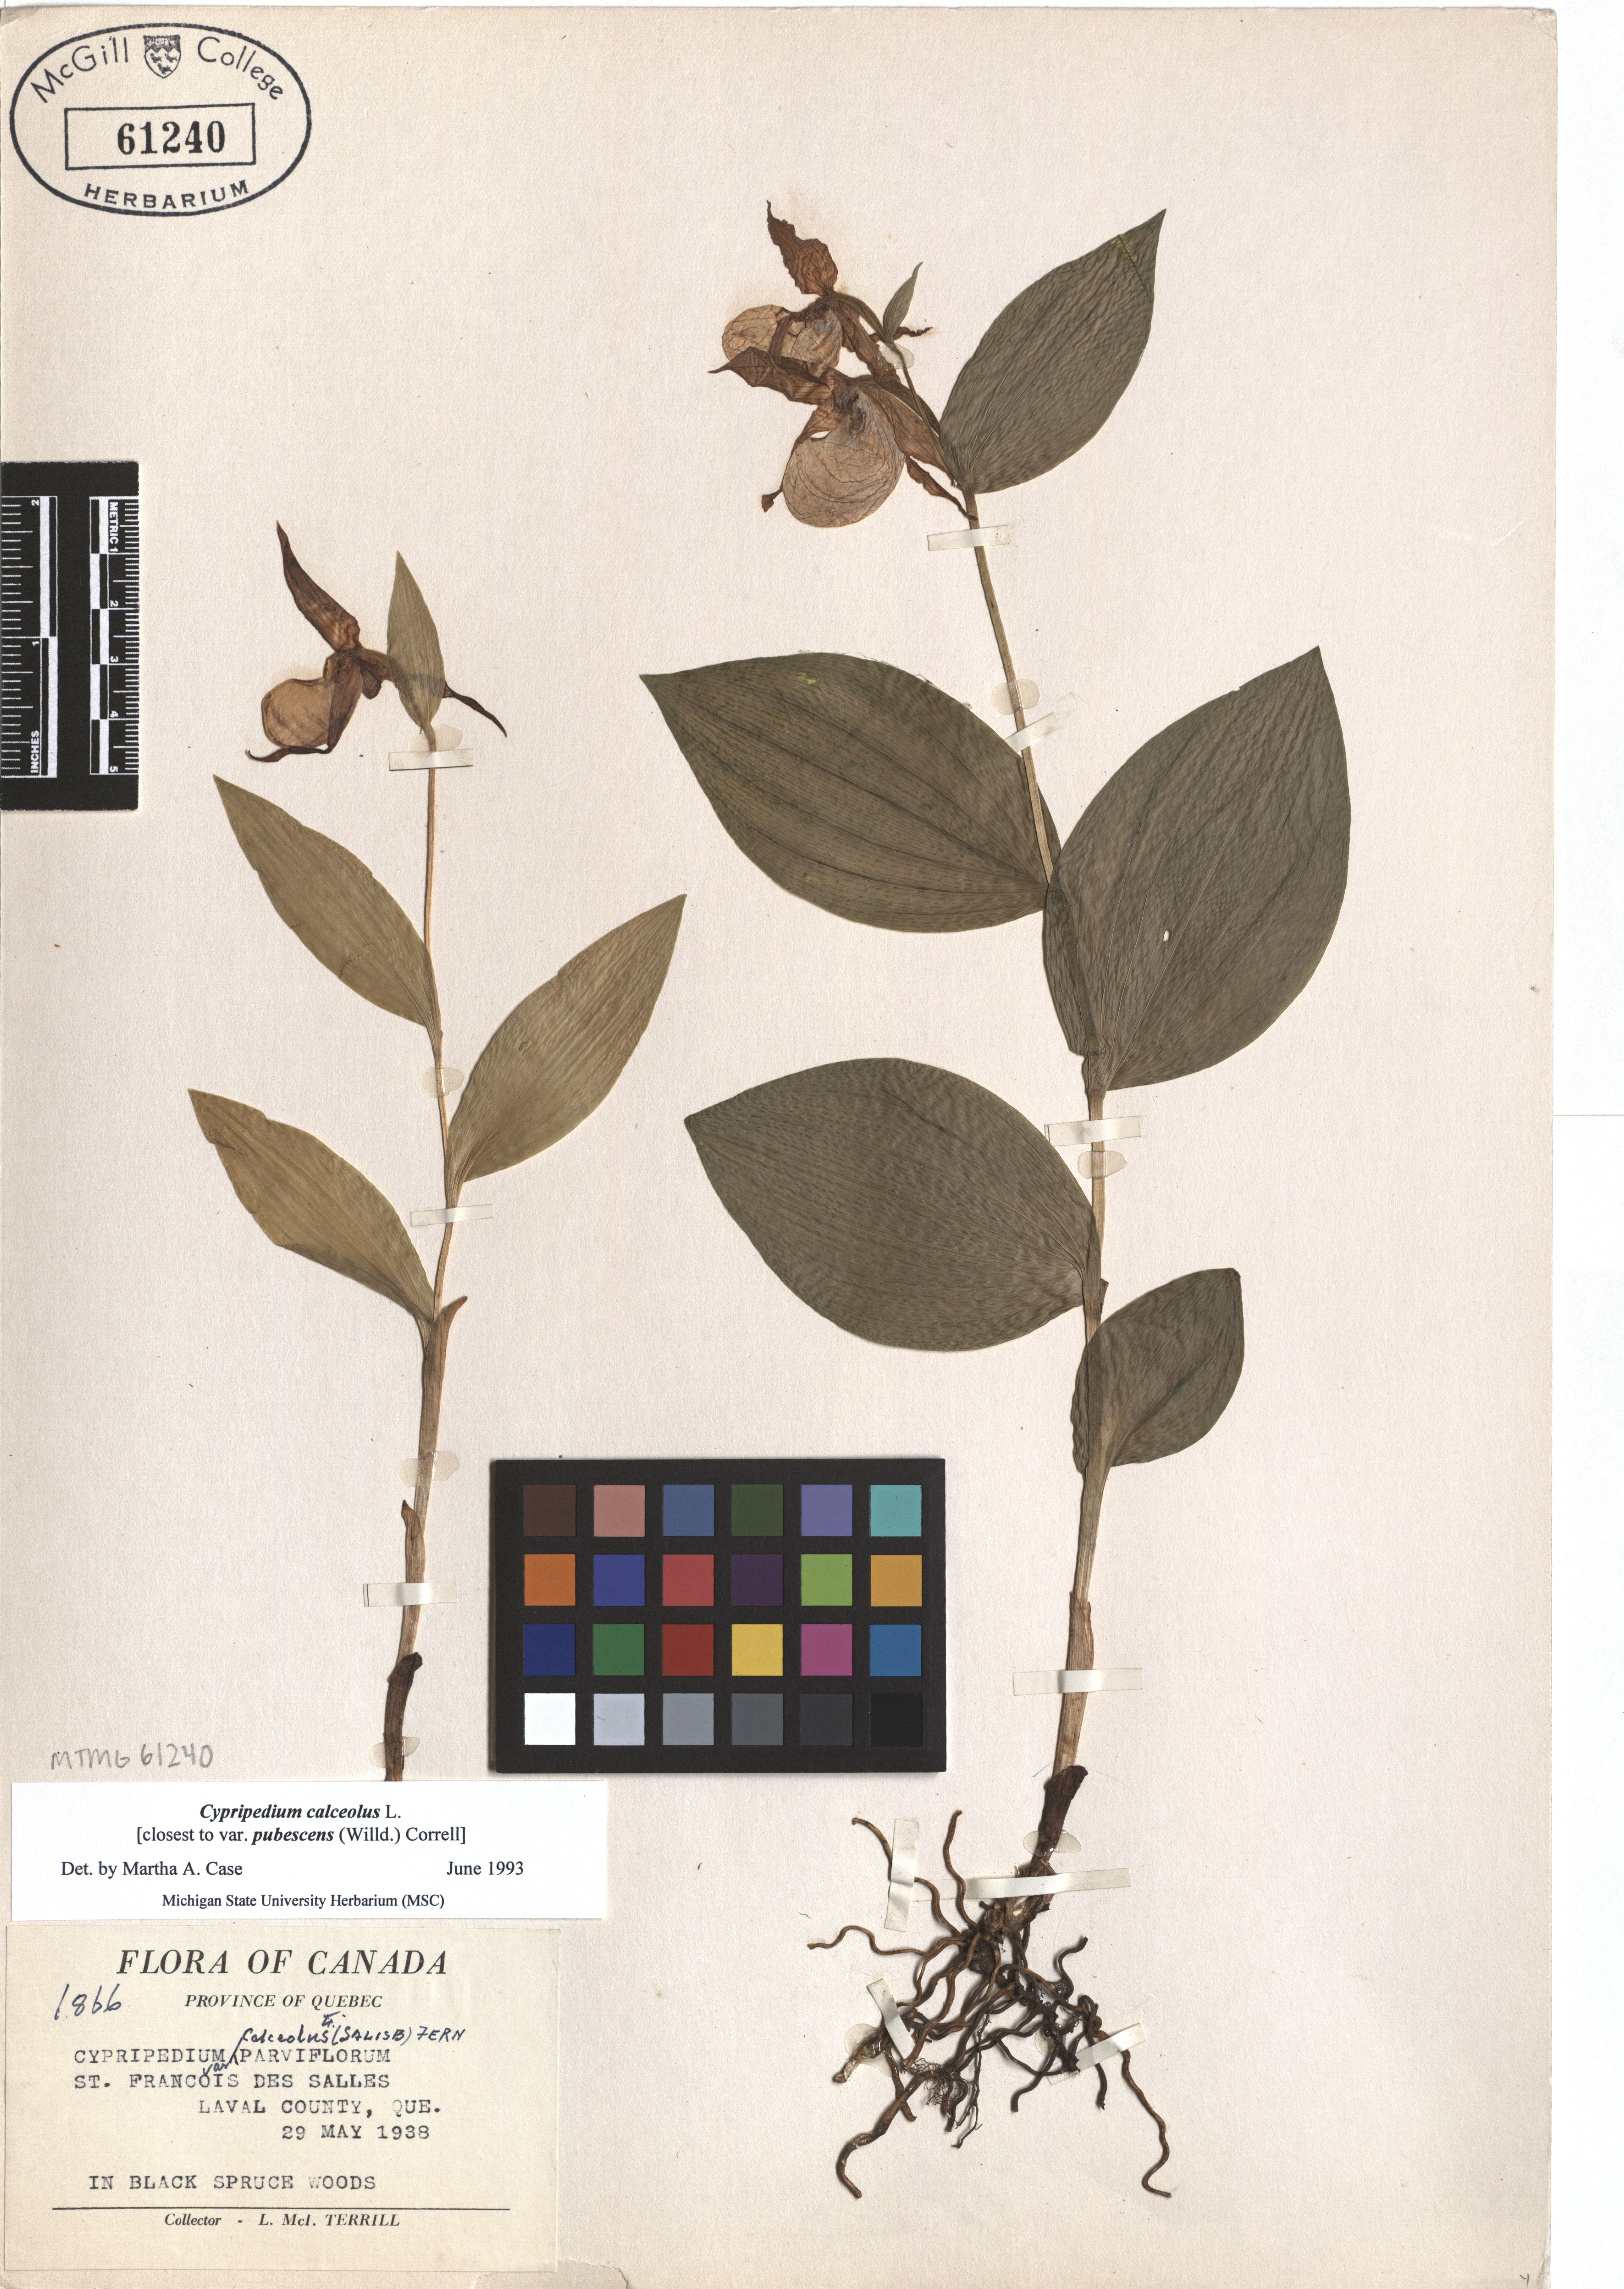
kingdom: Plantae
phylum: Tracheophyta
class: Liliopsida
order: Asparagales
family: Orchidaceae
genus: Cypripedium
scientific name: Cypripedium calceolus
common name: Lady's-slipper
